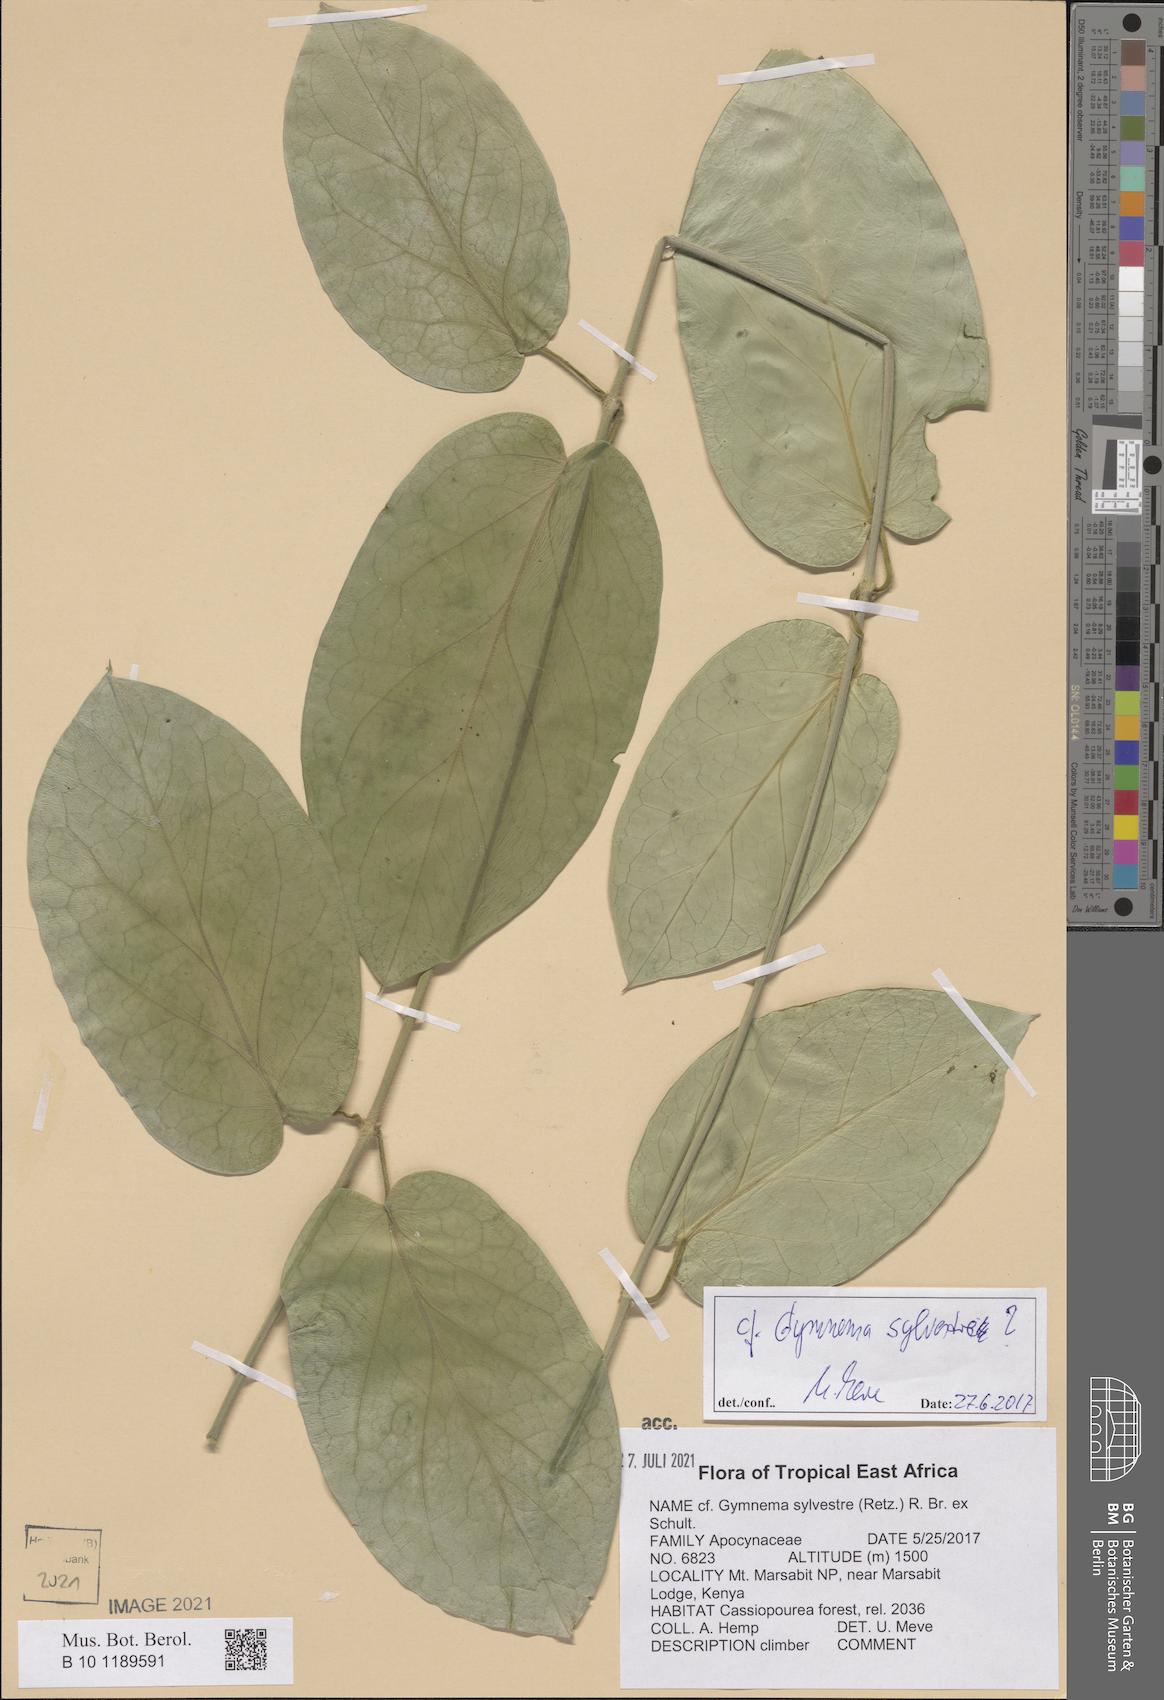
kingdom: Plantae
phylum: Tracheophyta
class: Magnoliopsida
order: Gentianales
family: Apocynaceae
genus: Gymnema
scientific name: Gymnema sylvestre
